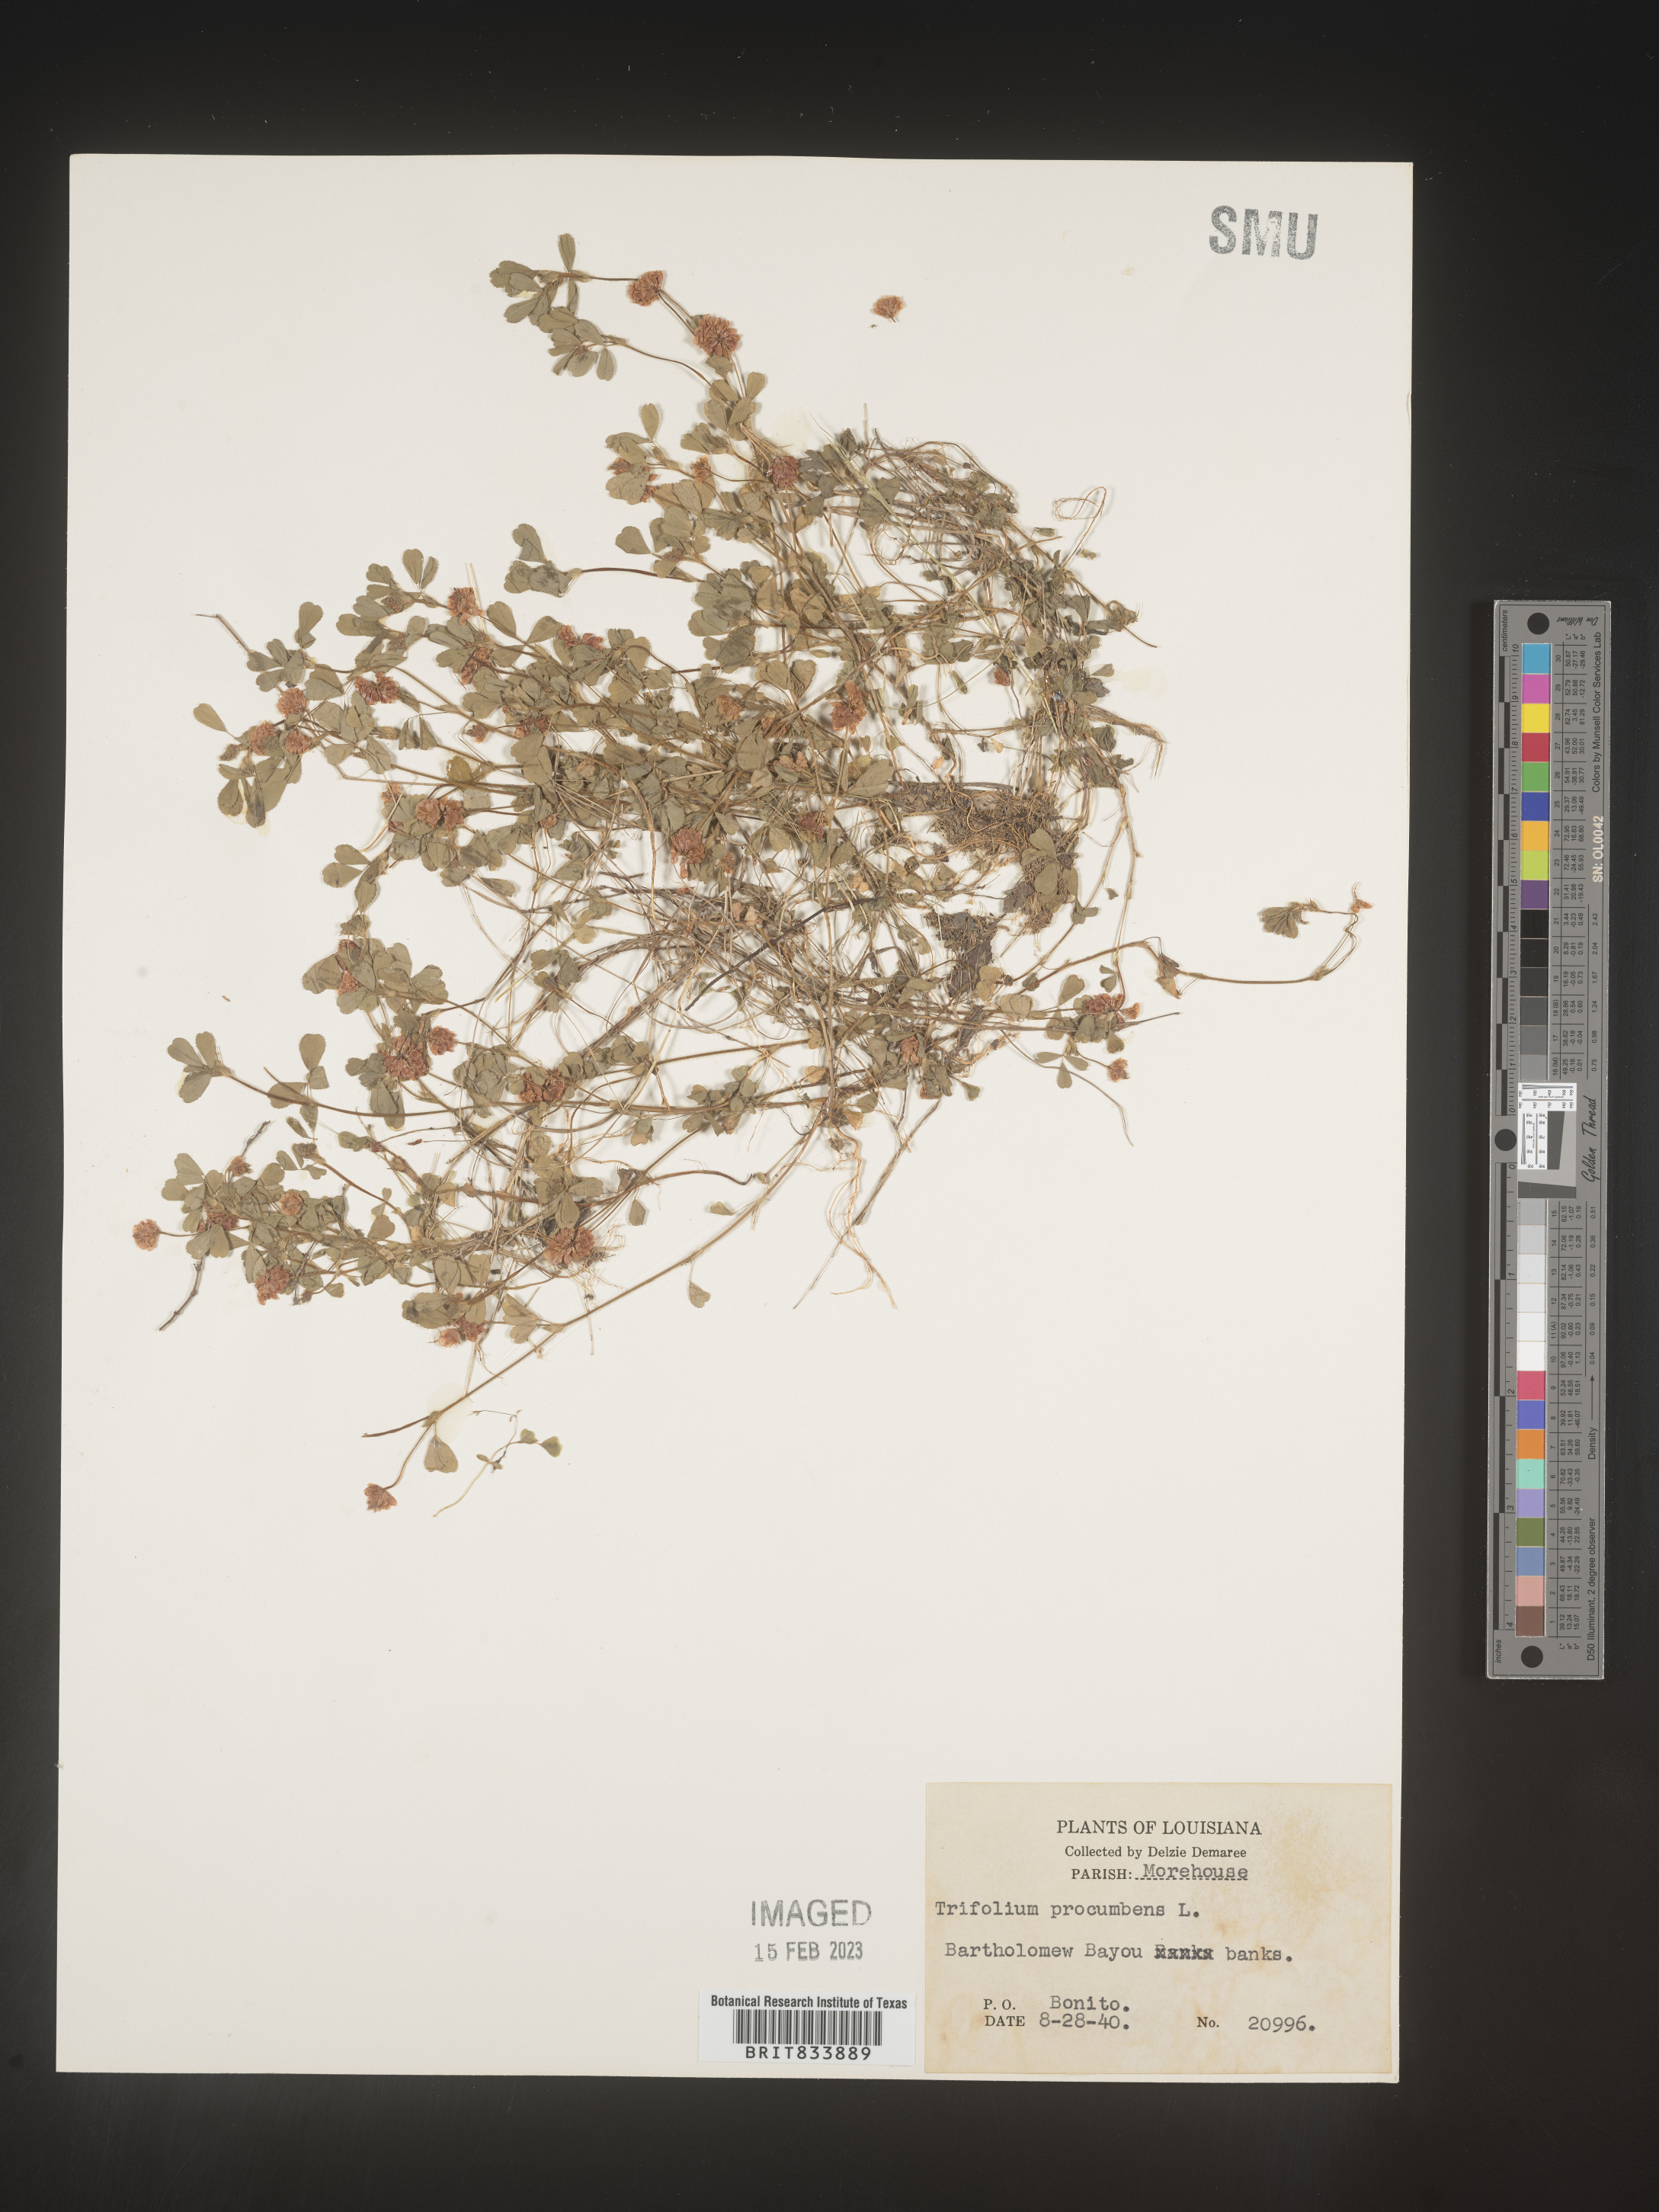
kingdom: Plantae
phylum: Tracheophyta
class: Magnoliopsida
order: Fabales
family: Fabaceae
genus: Trifolium
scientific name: Trifolium campestre
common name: Field clover
